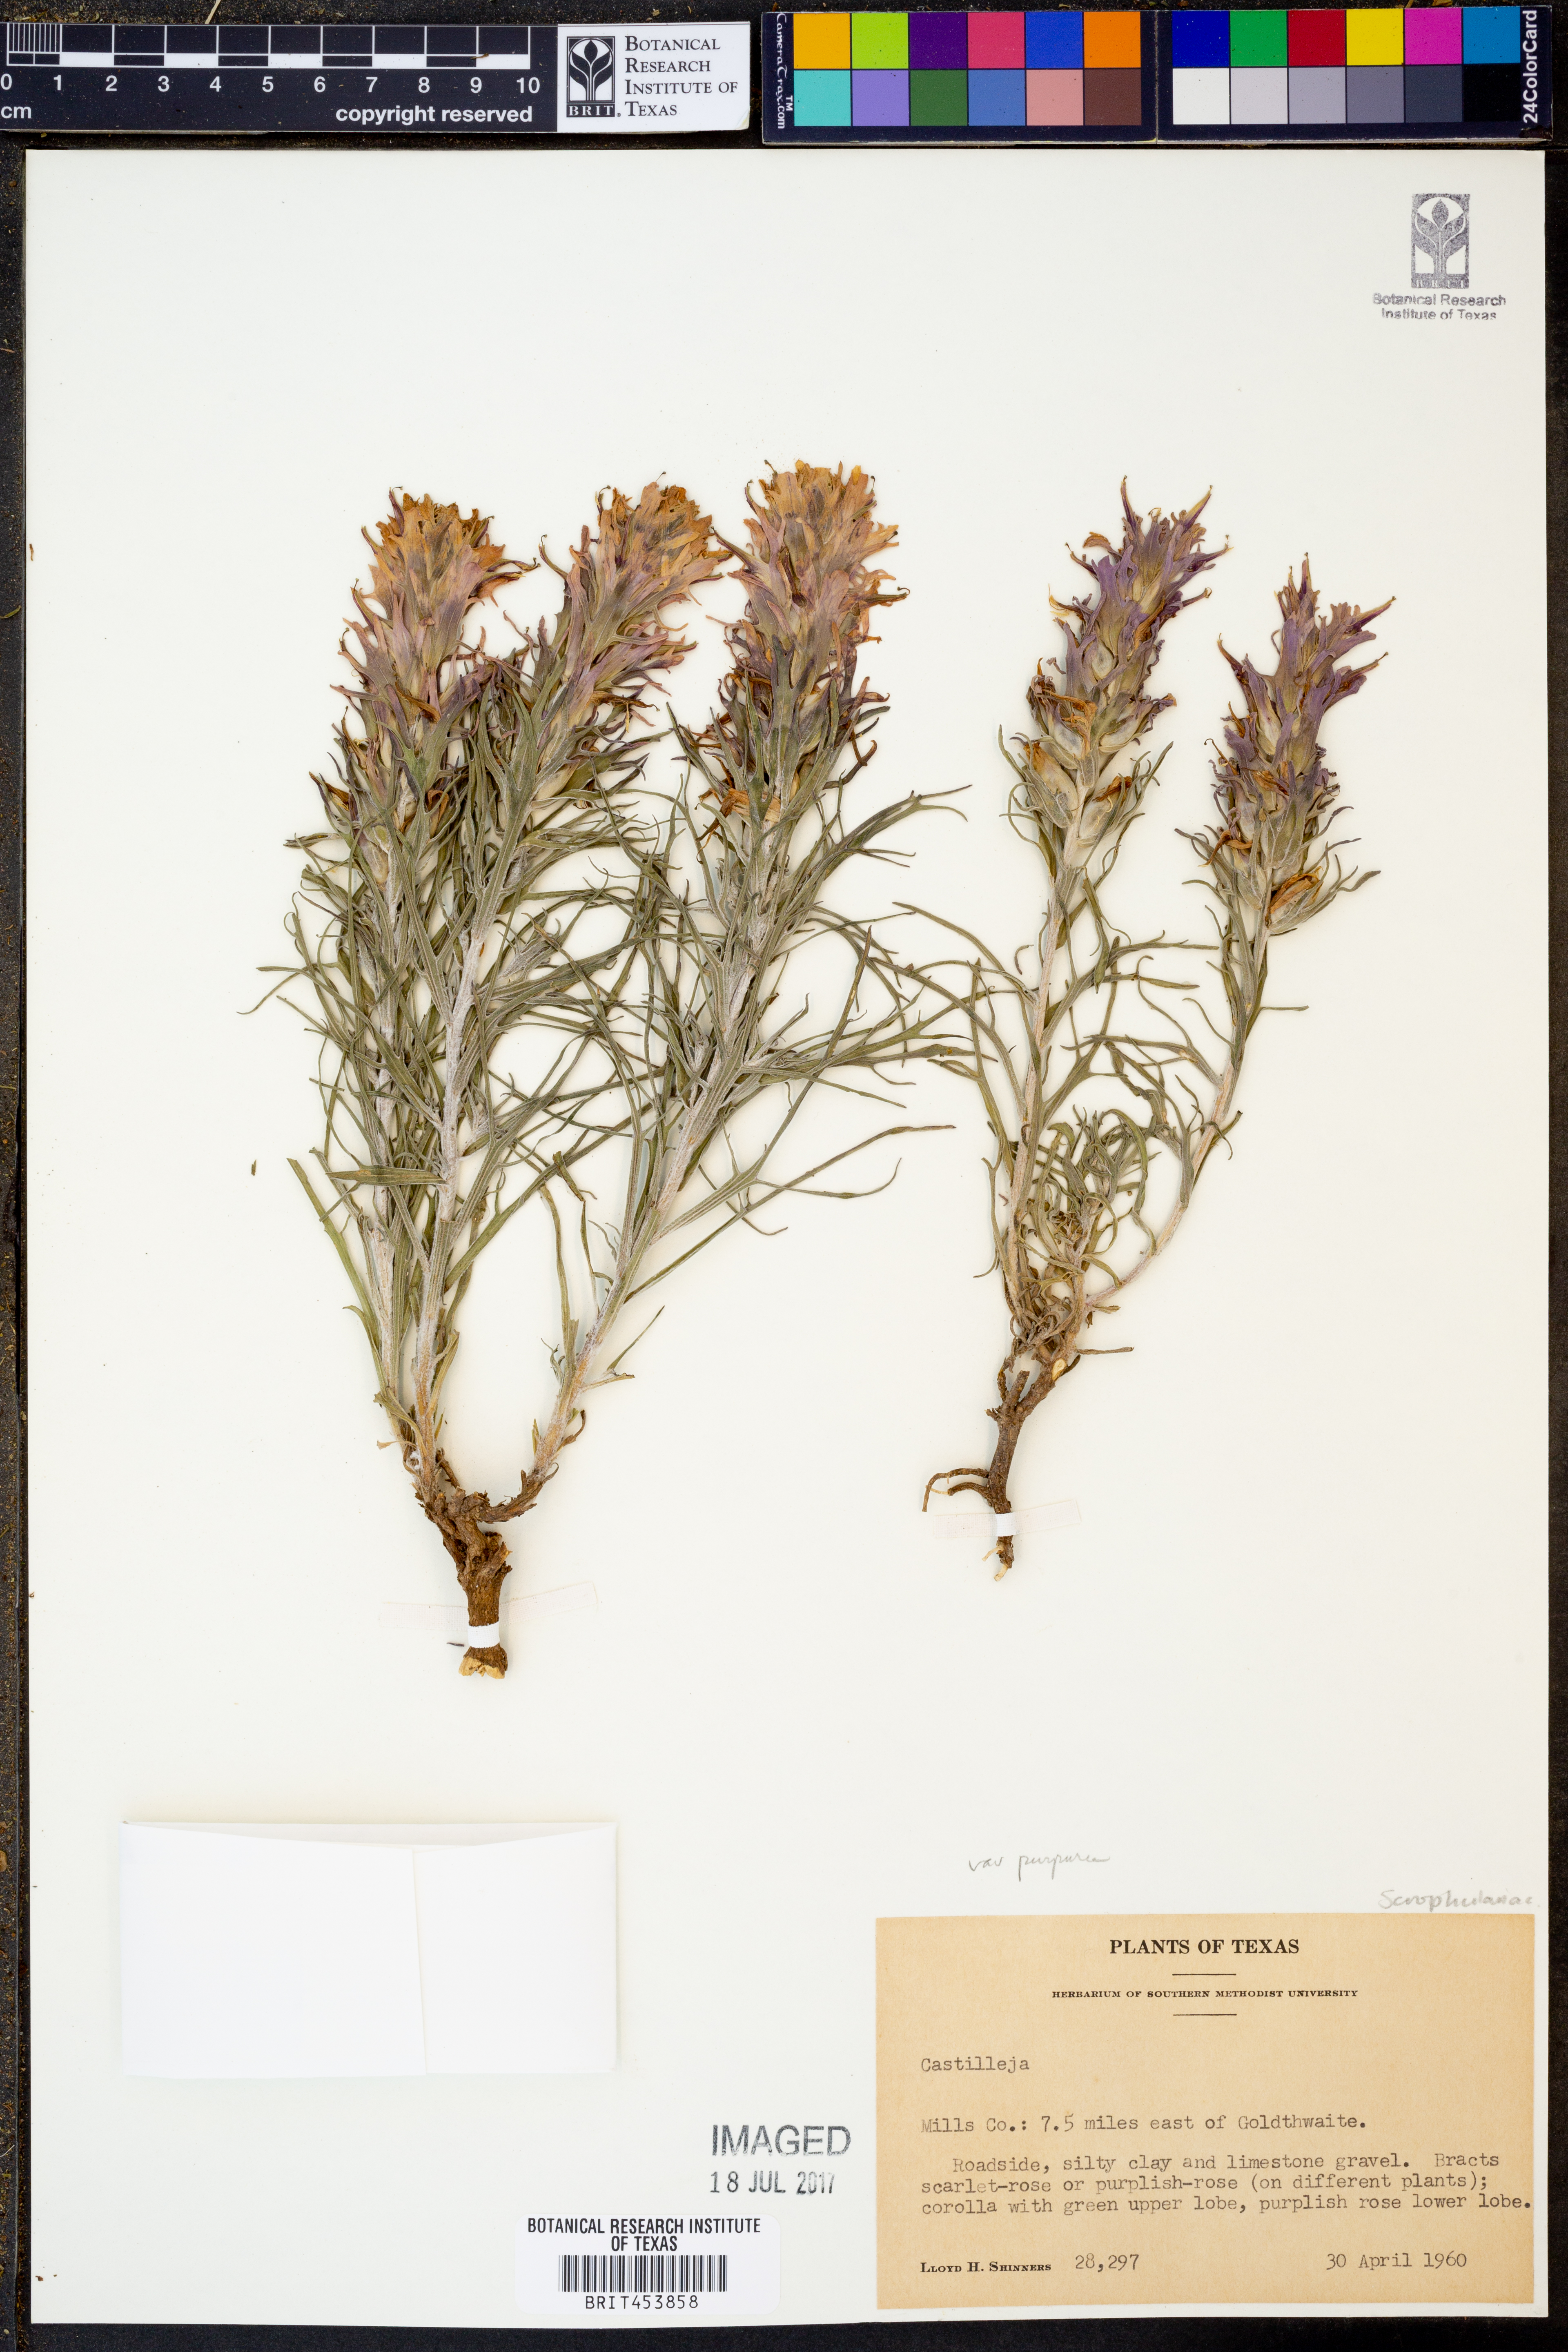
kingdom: Plantae
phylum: Tracheophyta
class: Magnoliopsida
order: Lamiales
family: Orobanchaceae
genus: Castilleja
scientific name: Castilleja
